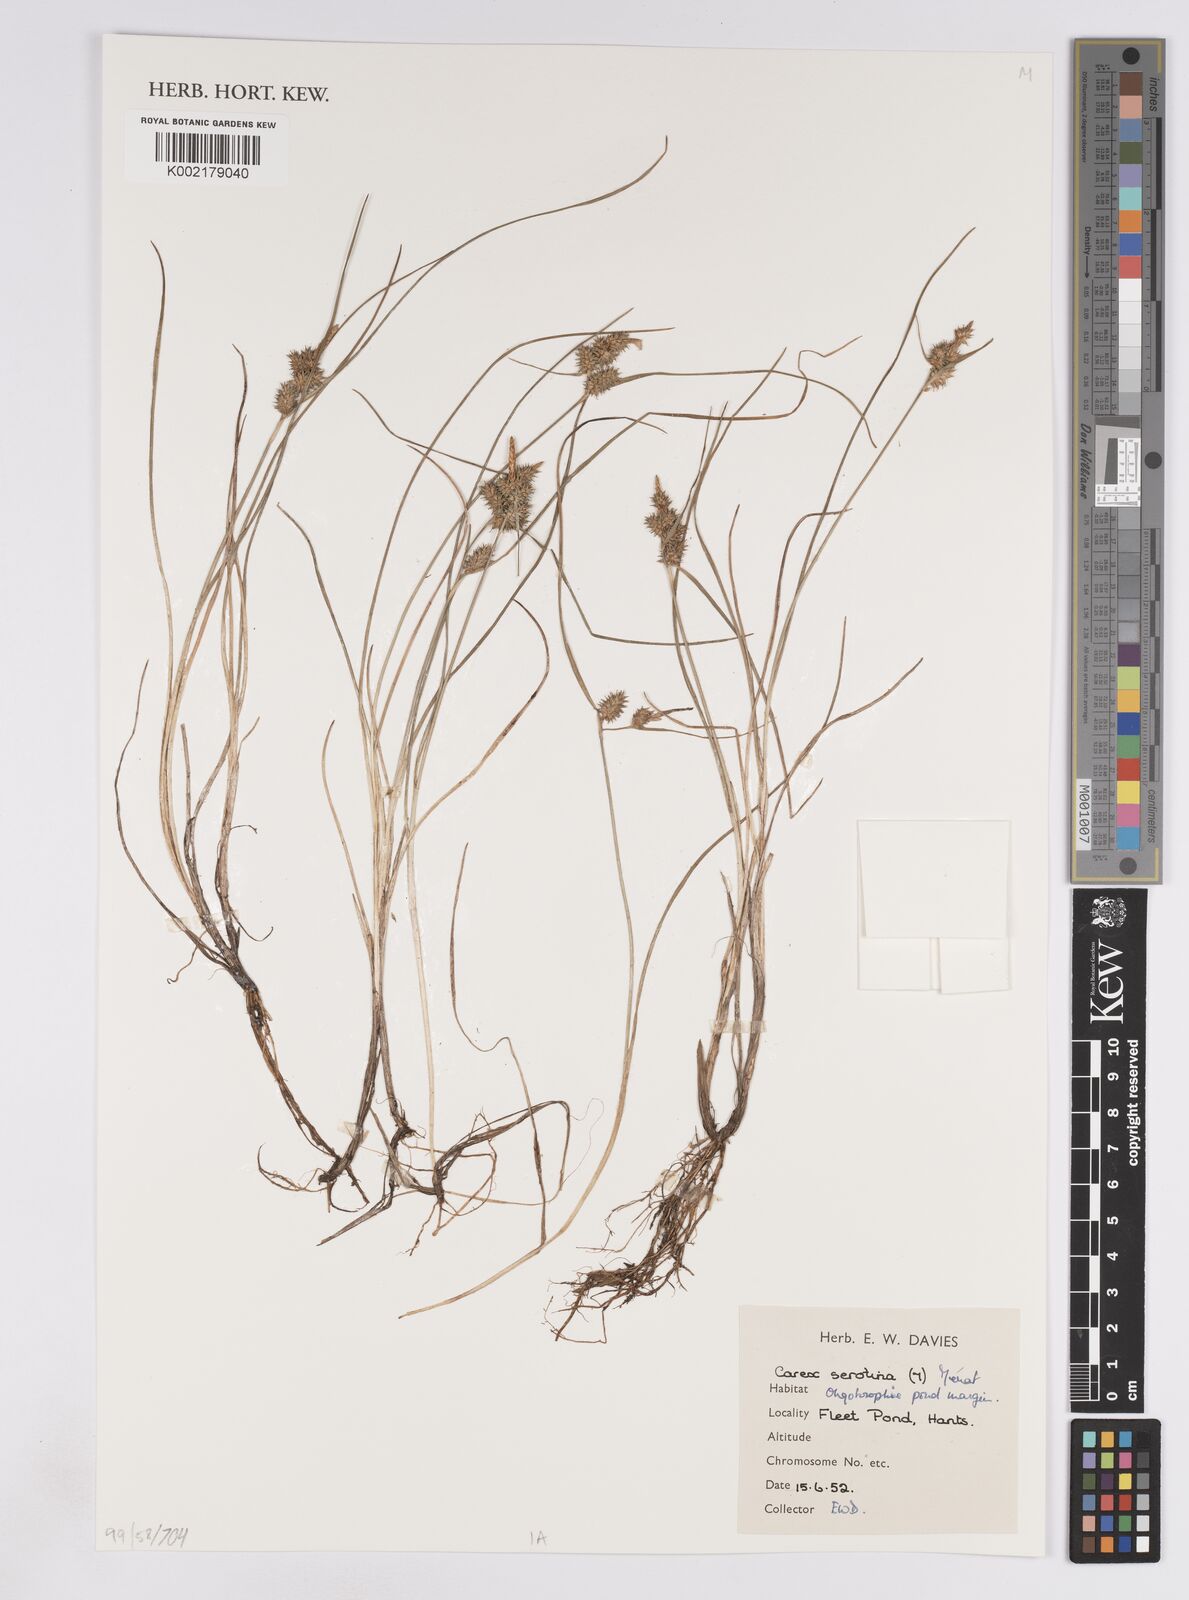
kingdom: Plantae
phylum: Tracheophyta
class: Liliopsida
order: Poales
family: Cyperaceae
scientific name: Cyperaceae
